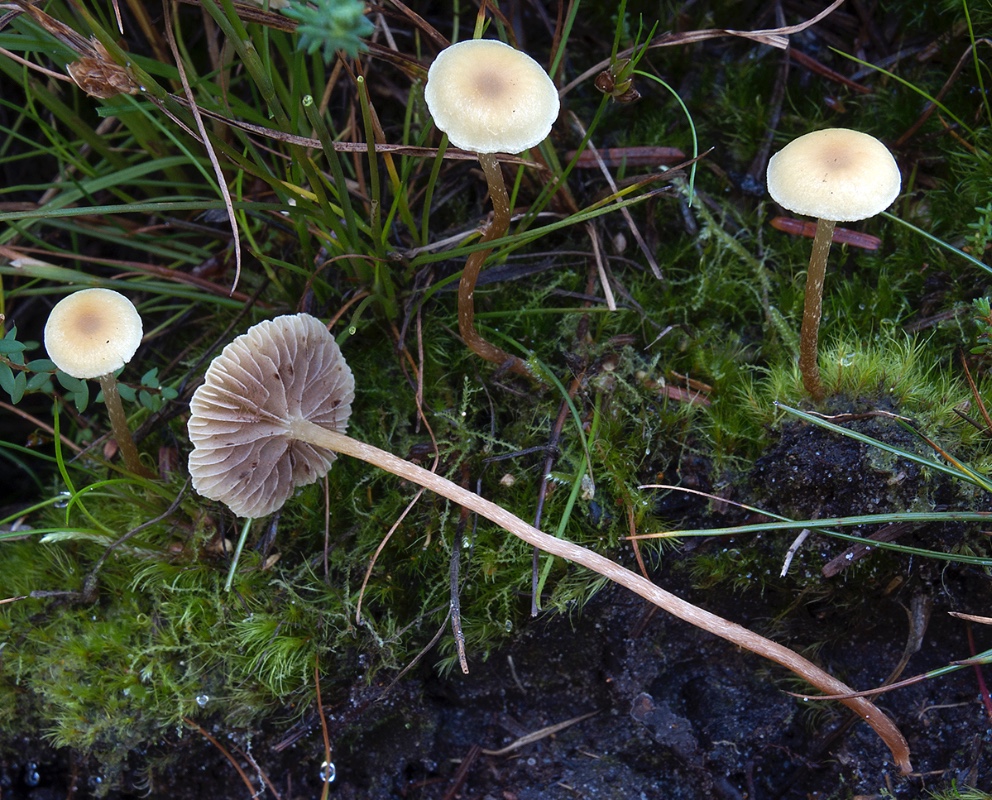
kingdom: Fungi
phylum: Basidiomycota
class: Agaricomycetes
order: Agaricales
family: Strophariaceae
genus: Hypholoma
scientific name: Hypholoma elongatum
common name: slank svovlhat
